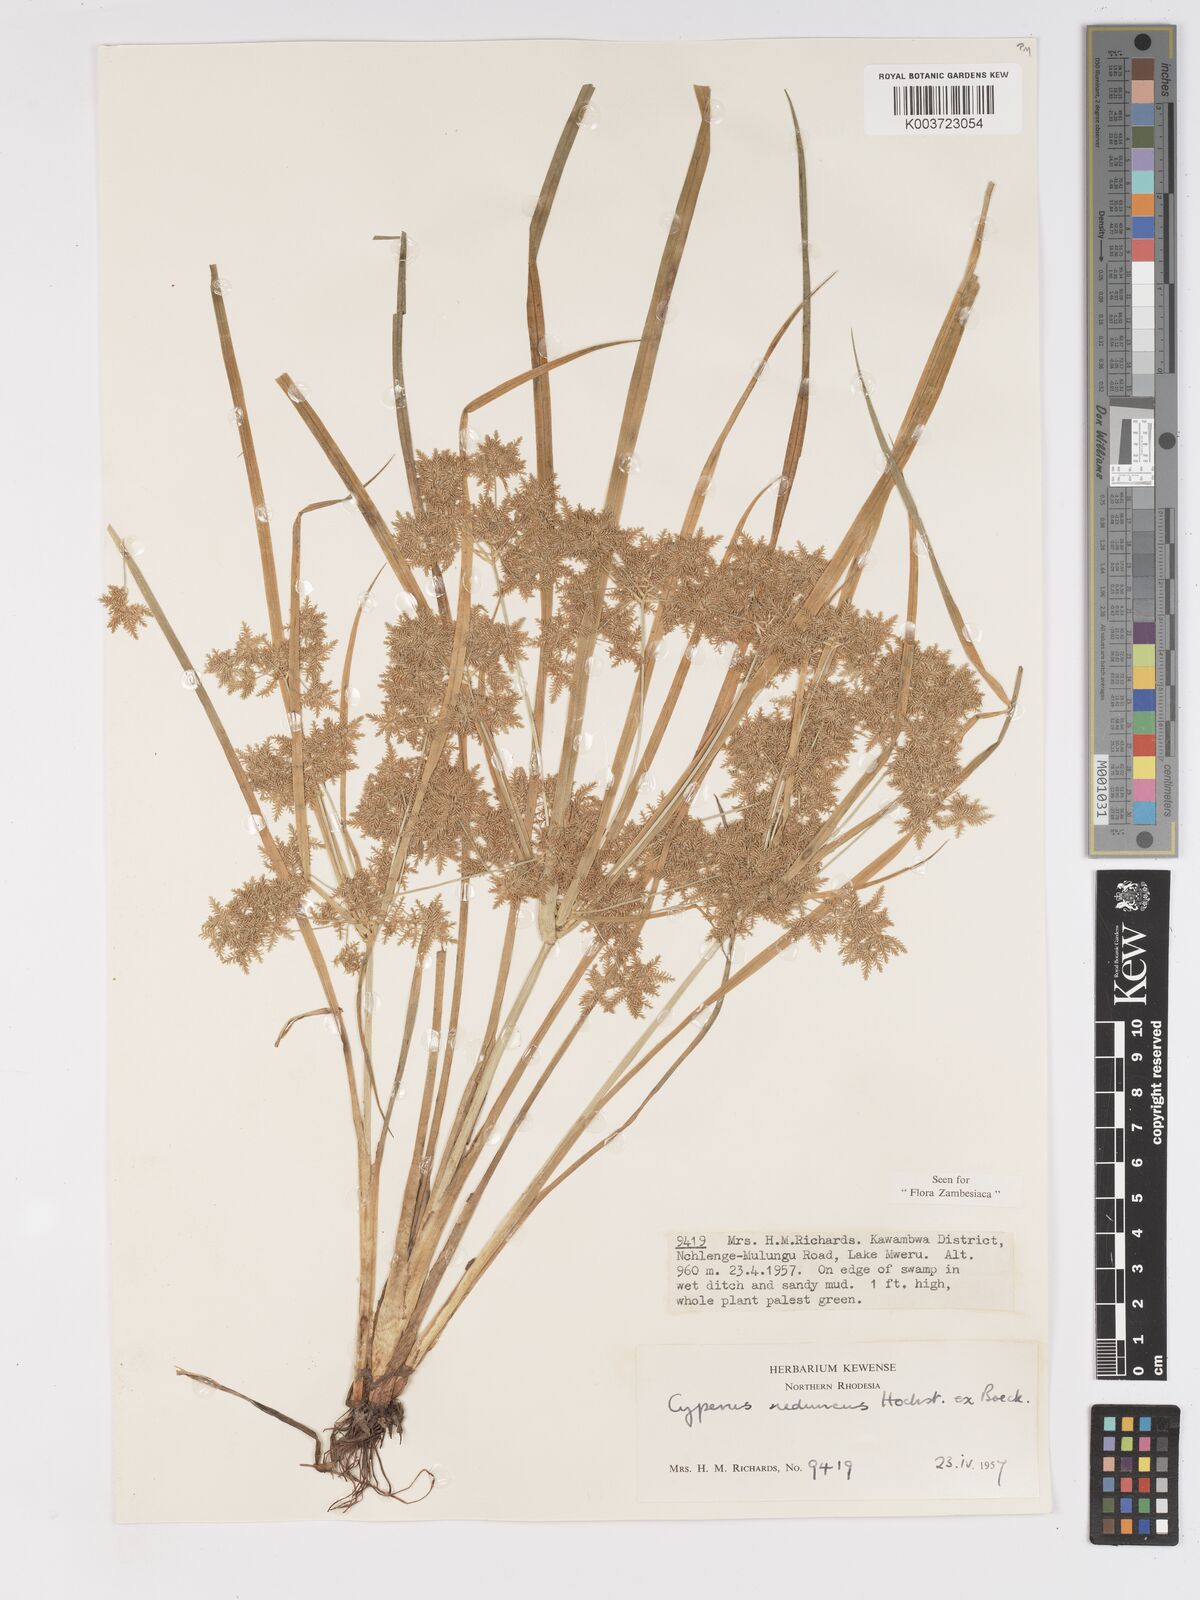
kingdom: Plantae
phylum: Tracheophyta
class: Liliopsida
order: Poales
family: Cyperaceae
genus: Cyperus
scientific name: Cyperus reduncus
